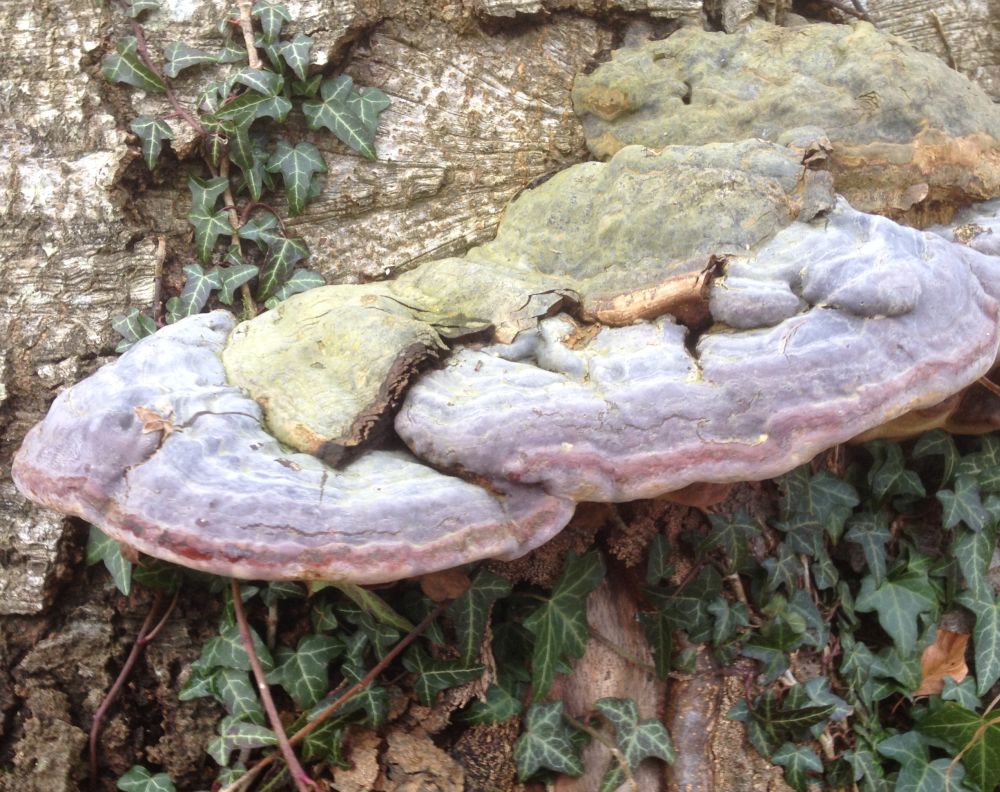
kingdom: Fungi
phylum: Basidiomycota
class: Agaricomycetes
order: Polyporales
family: Polyporaceae
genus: Ganoderma
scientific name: Ganoderma pfeifferi
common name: kobberrød lakporesvamp
